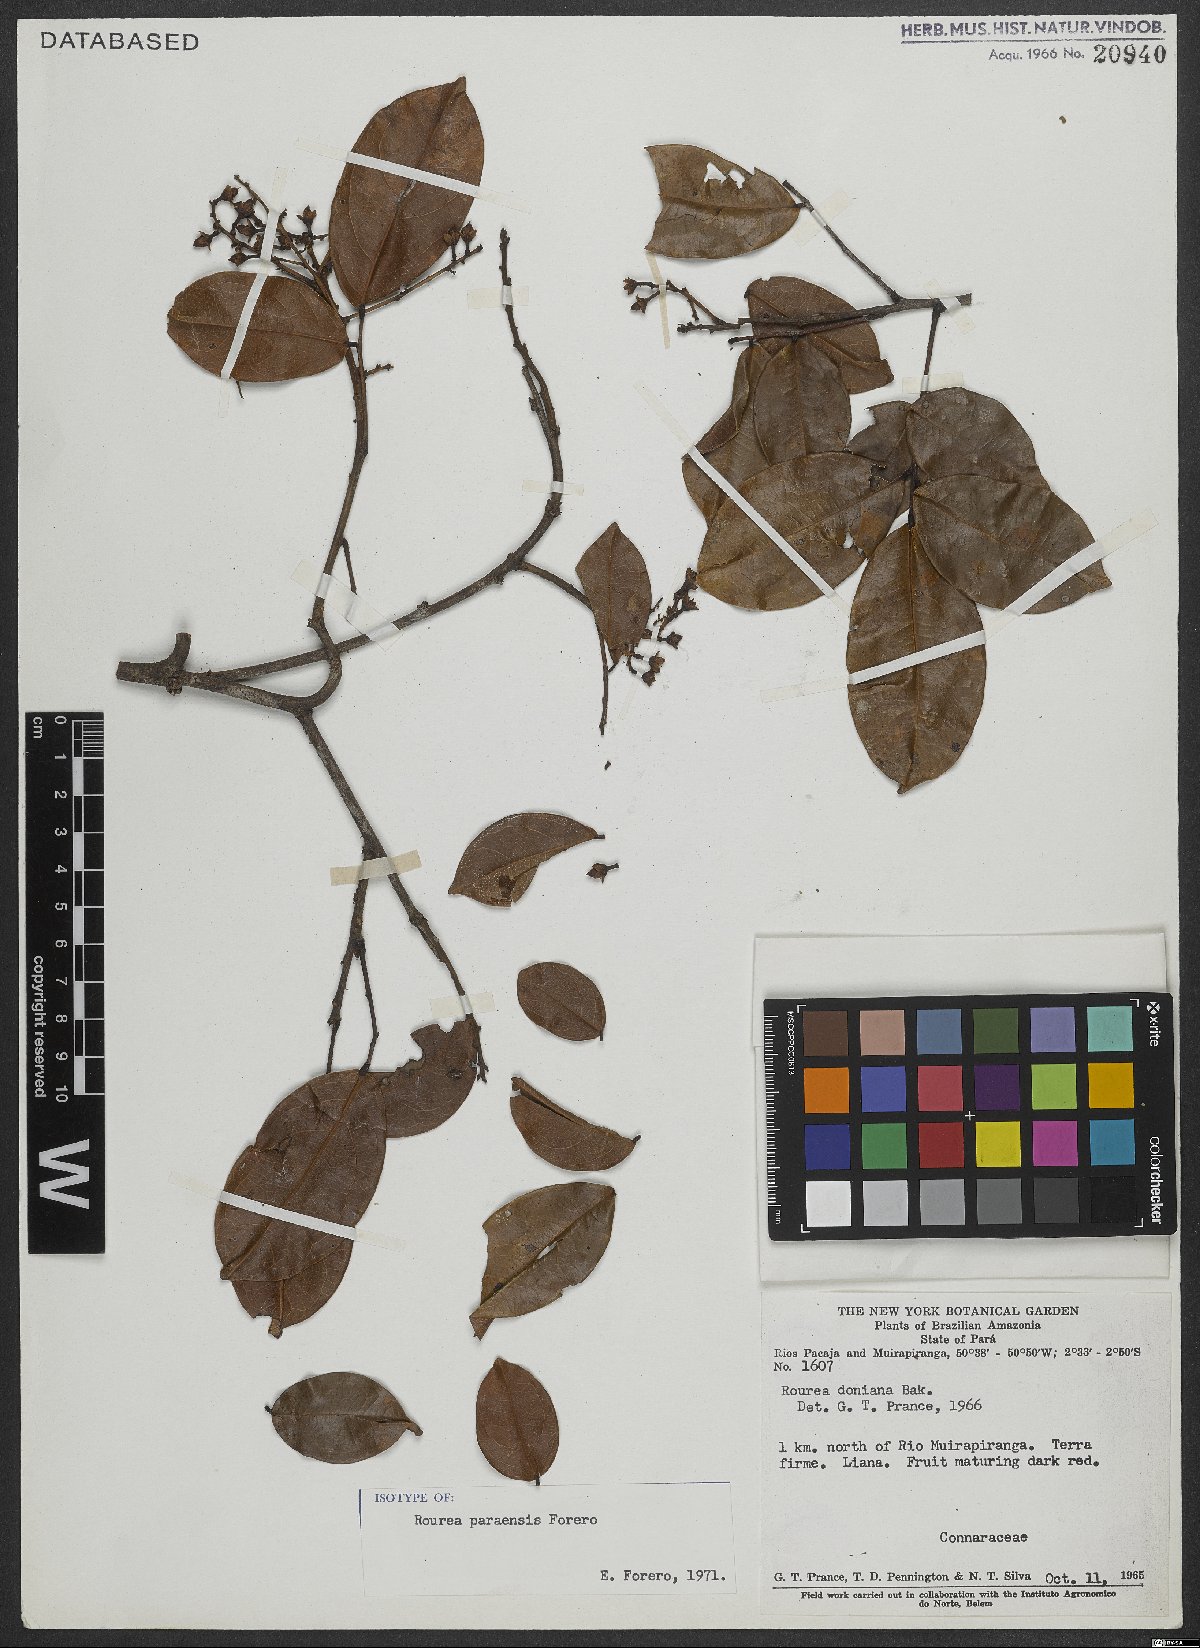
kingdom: Plantae
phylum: Tracheophyta
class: Magnoliopsida
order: Oxalidales
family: Connaraceae
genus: Rourea
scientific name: Rourea paraensis
